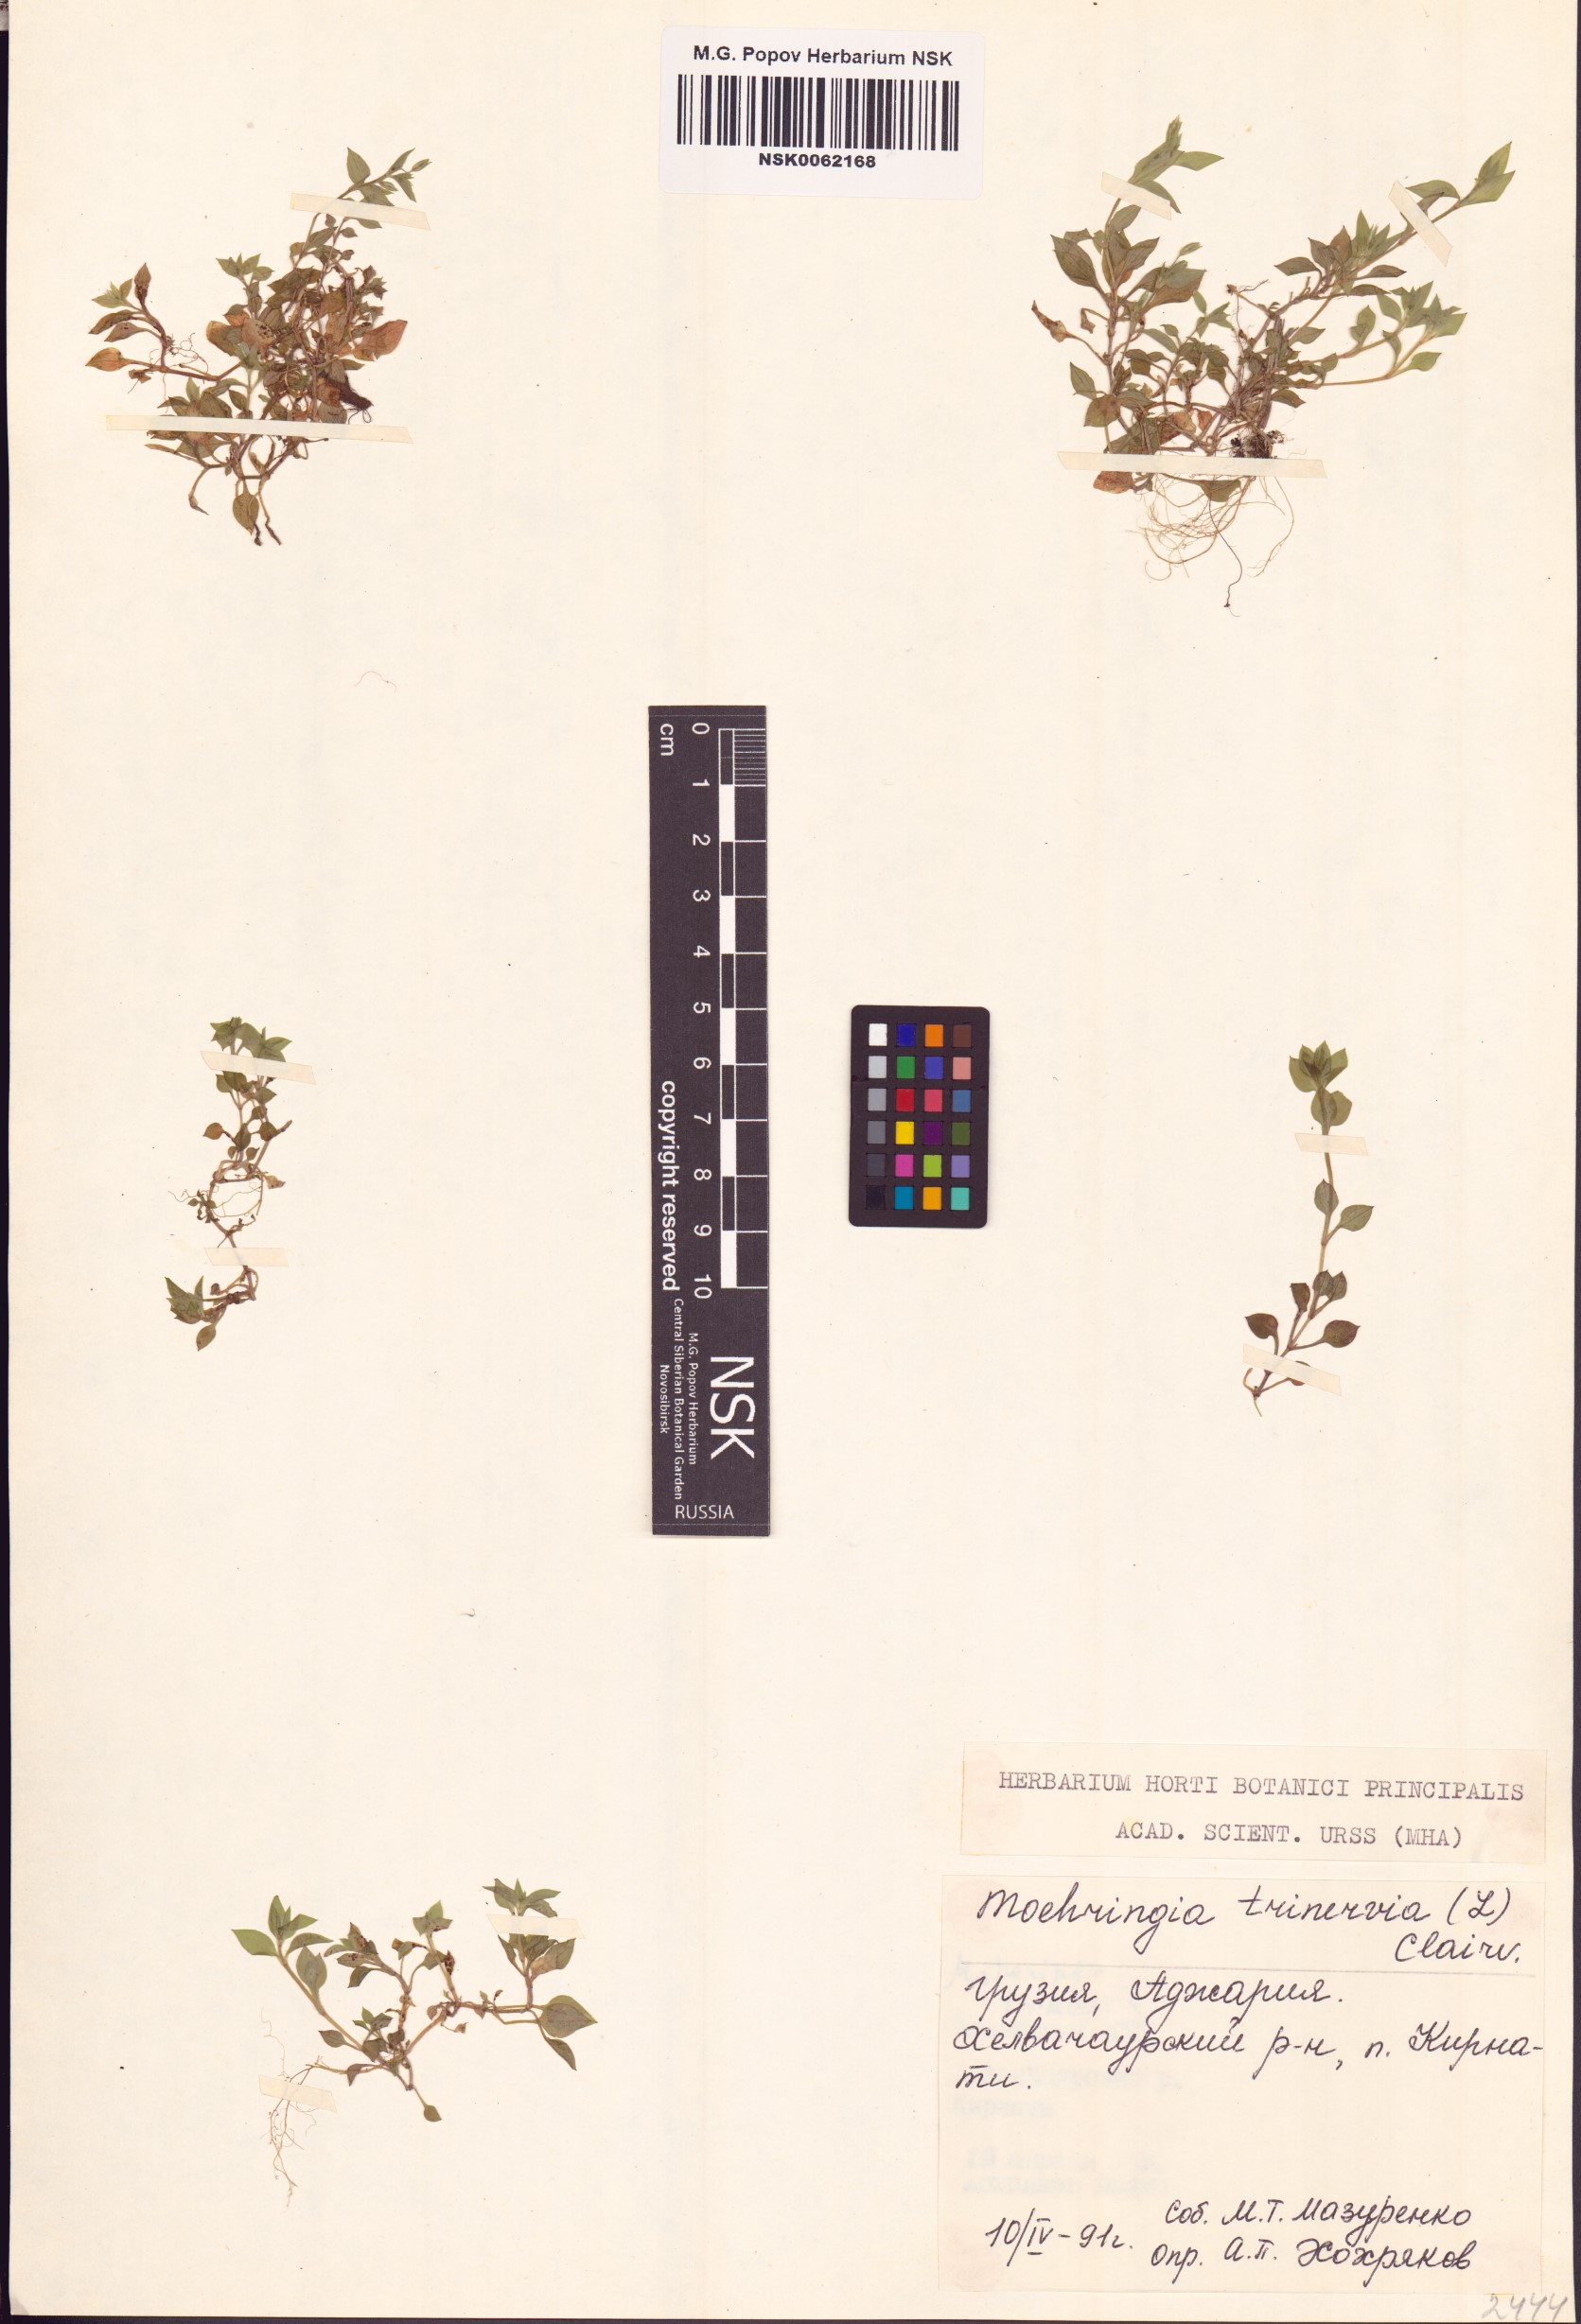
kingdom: Plantae
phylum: Tracheophyta
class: Magnoliopsida
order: Caryophyllales
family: Caryophyllaceae
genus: Moehringia
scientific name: Moehringia trinervia
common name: Three-nerved sandwort
